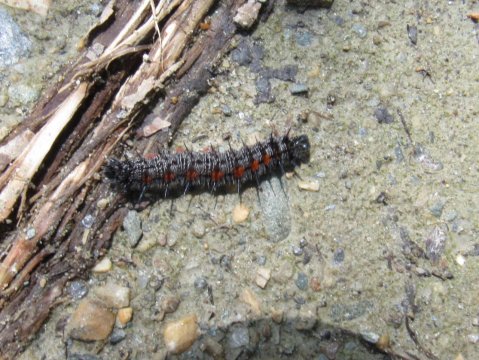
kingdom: Animalia
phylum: Arthropoda
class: Insecta
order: Lepidoptera
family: Nymphalidae
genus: Nymphalis
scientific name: Nymphalis antiopa
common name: Mourning Cloak
